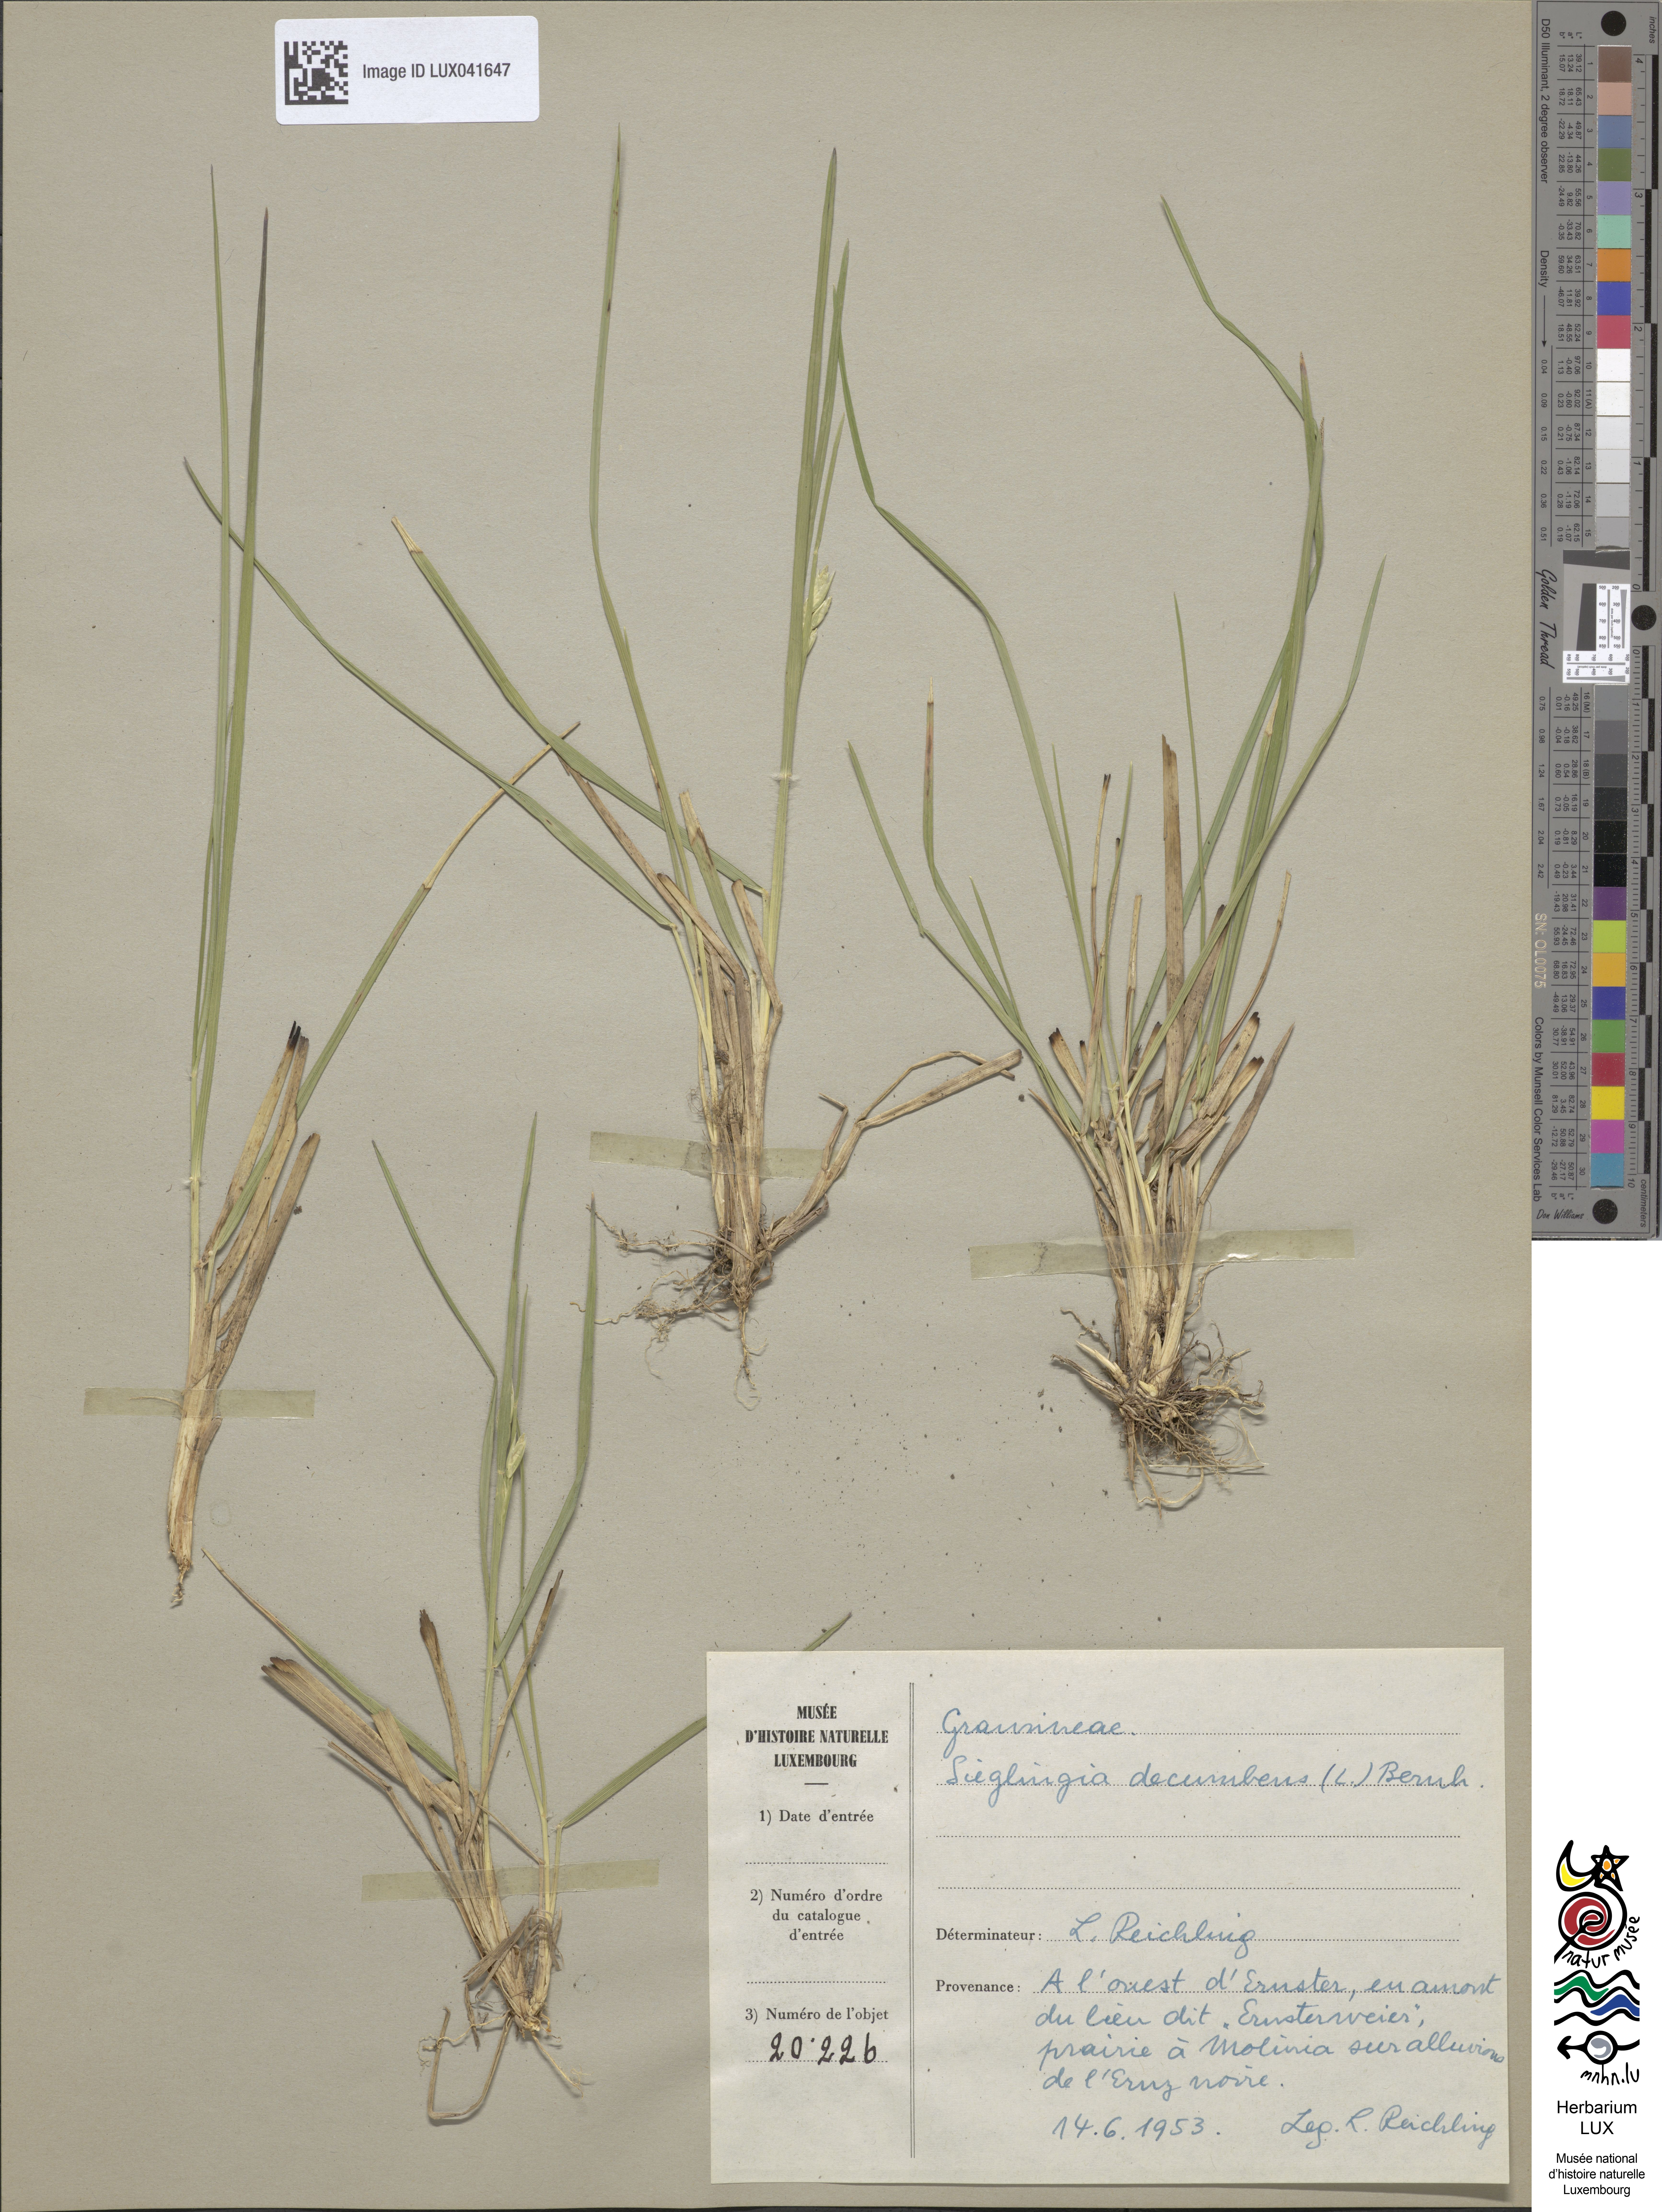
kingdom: Plantae
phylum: Tracheophyta
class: Liliopsida
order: Poales
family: Poaceae
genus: Danthonia
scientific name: Danthonia decumbens
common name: Common heathgrass
